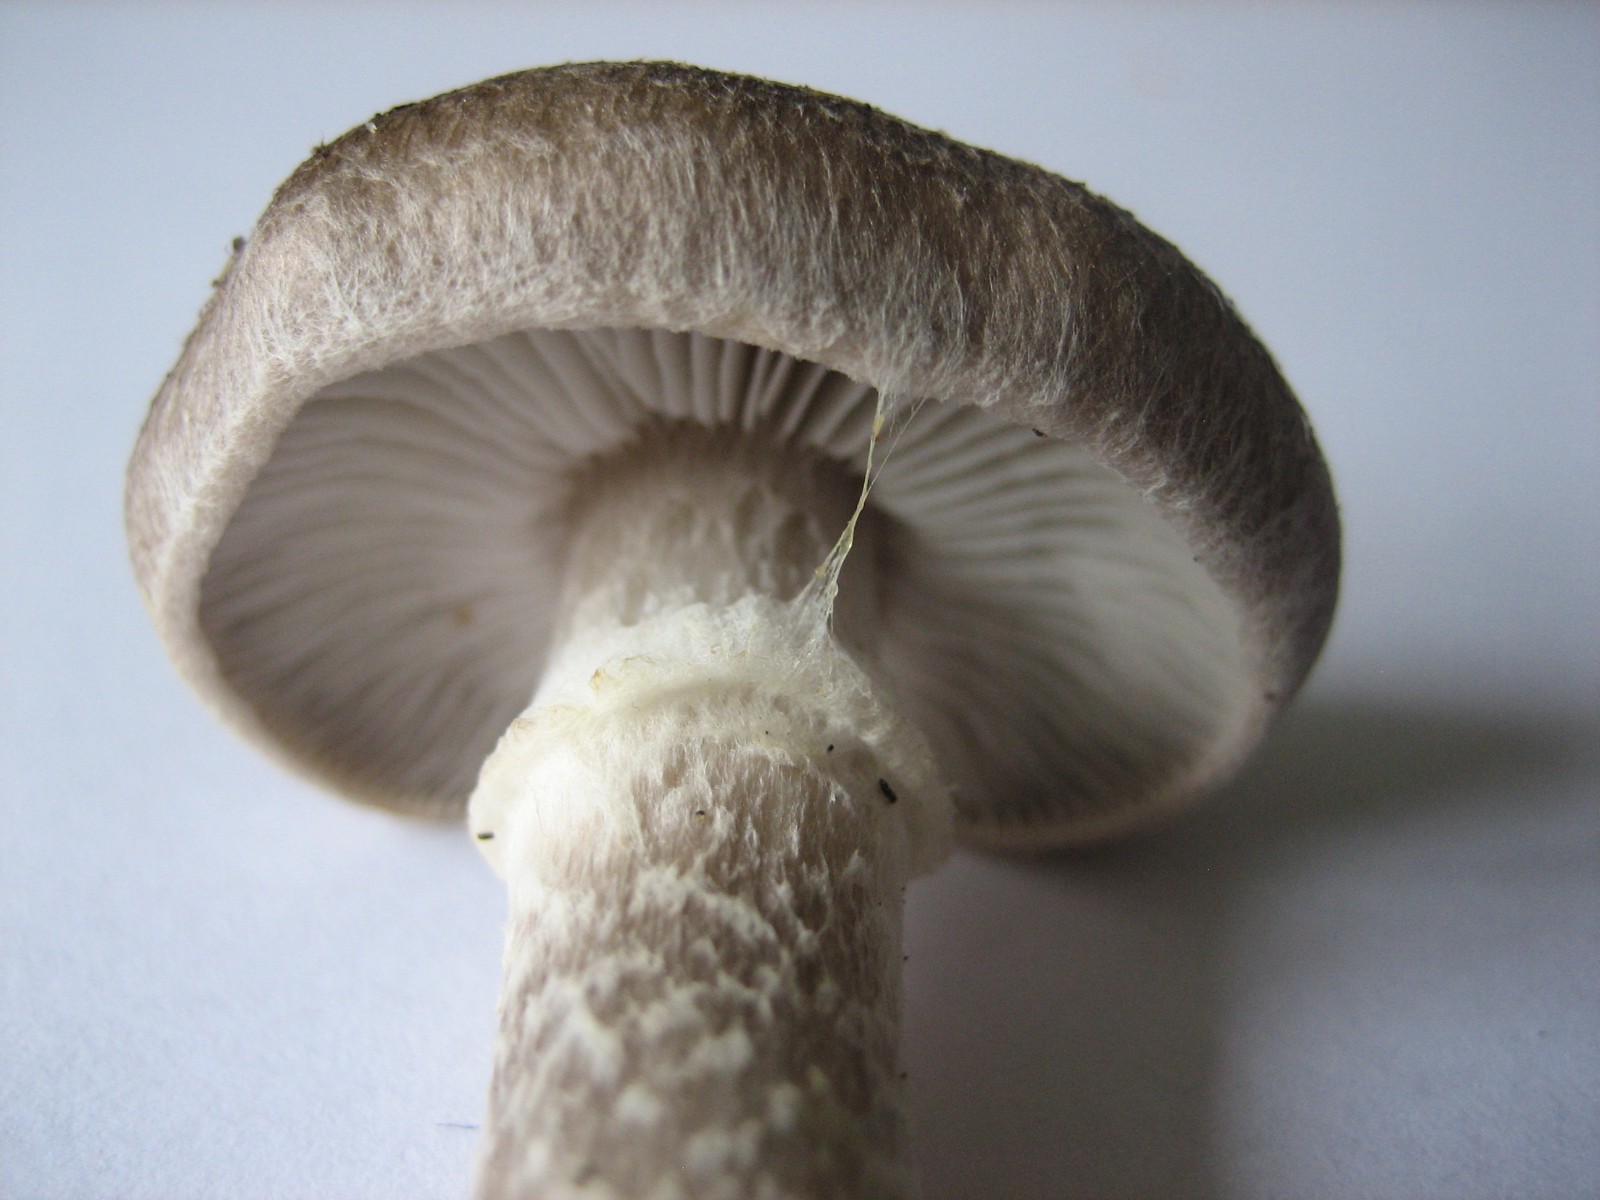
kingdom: Fungi
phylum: Basidiomycota
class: Agaricomycetes
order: Agaricales
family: Tricholomataceae
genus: Tricholoma
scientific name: Tricholoma cingulatum
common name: ring-ridderhat
